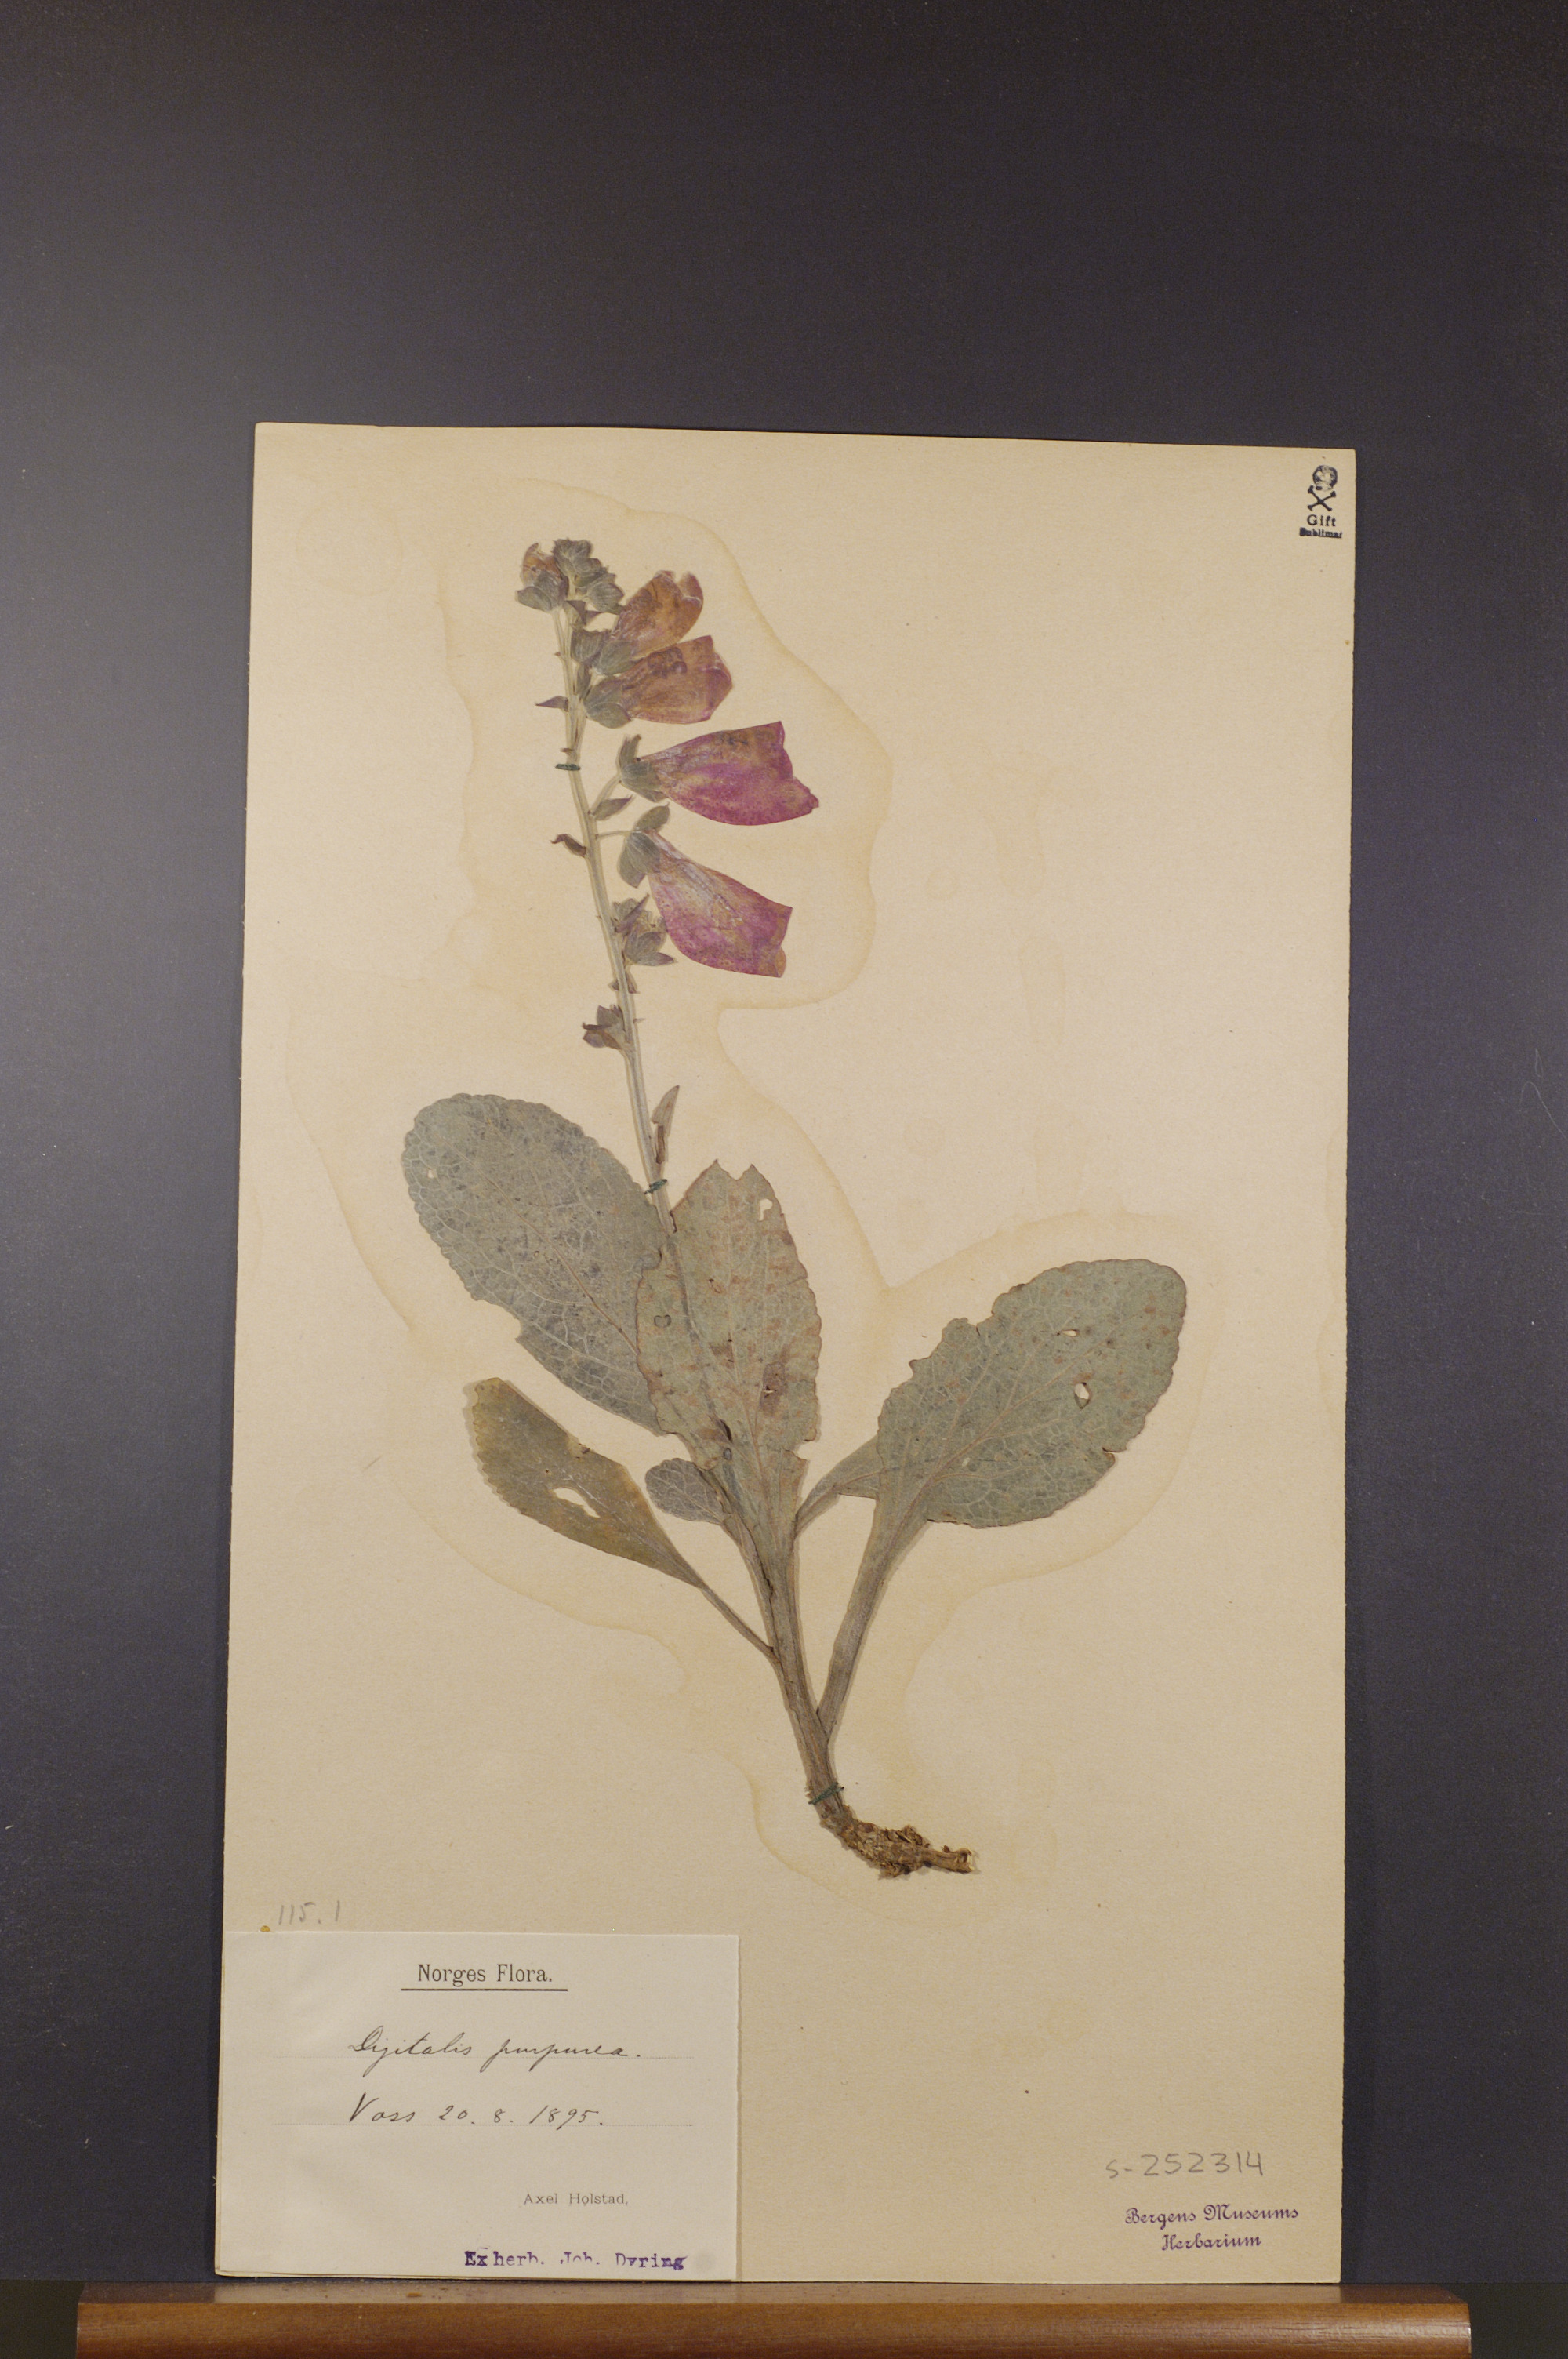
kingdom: Plantae
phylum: Tracheophyta
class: Magnoliopsida
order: Lamiales
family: Plantaginaceae
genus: Digitalis
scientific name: Digitalis purpurea
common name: Foxglove
